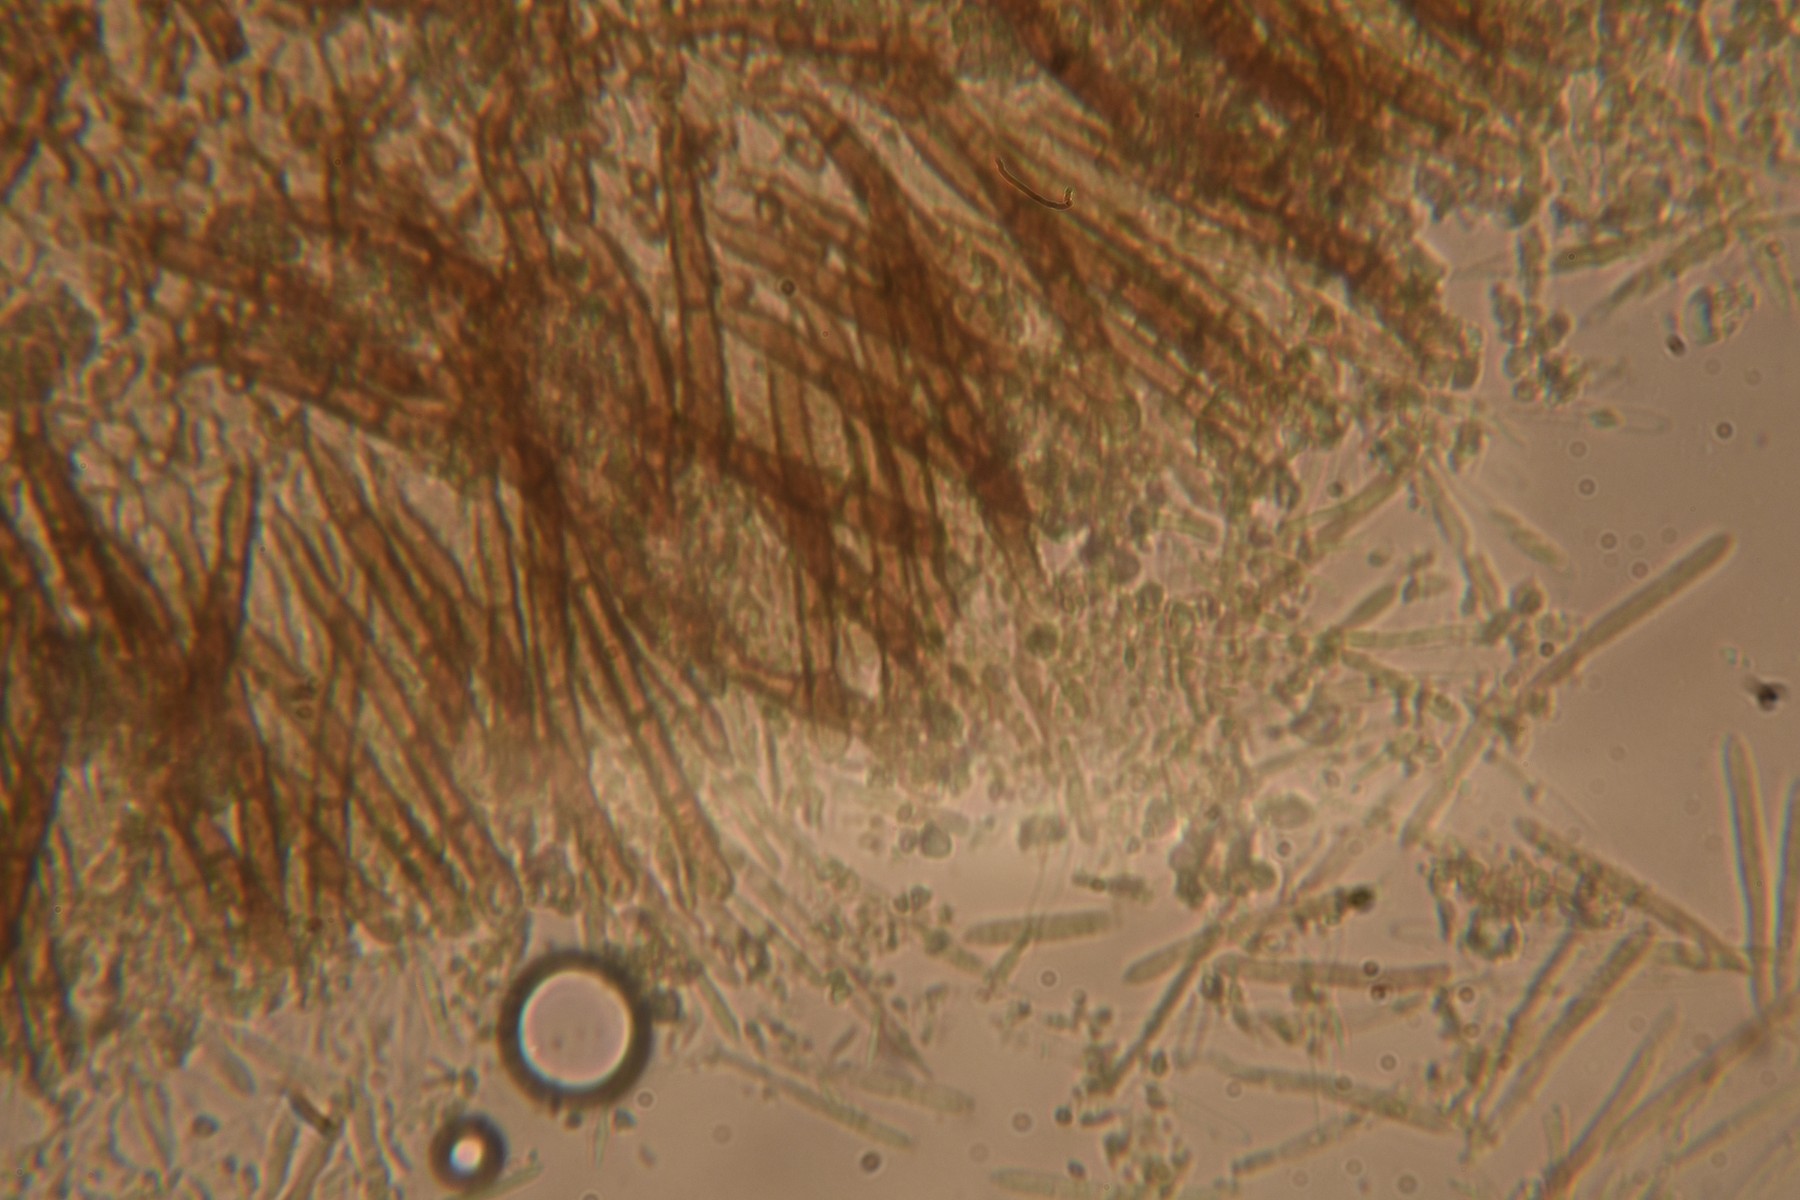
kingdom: Fungi
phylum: Ascomycota
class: Leotiomycetes
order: Helotiales
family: Lachnaceae
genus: Brunnipila
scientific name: Brunnipila fuscescens
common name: bøge-frynseskive
